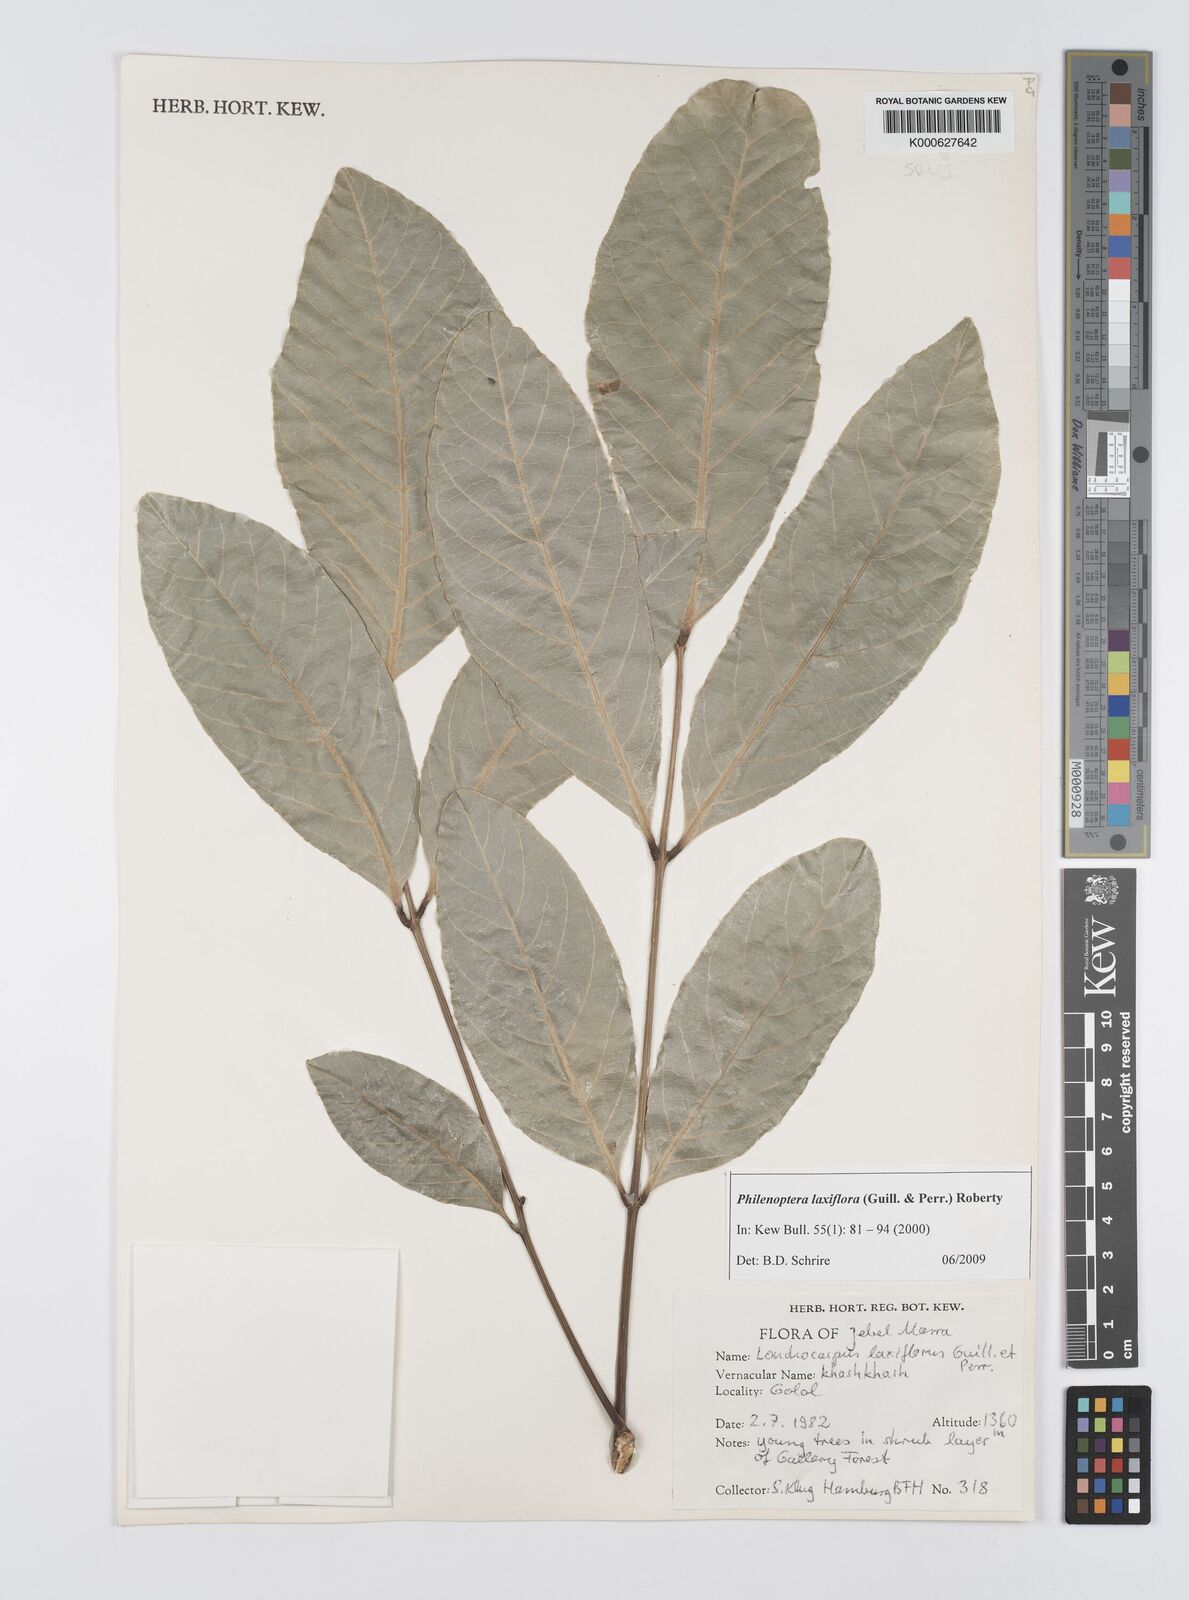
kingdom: Plantae
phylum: Tracheophyta
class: Magnoliopsida
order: Fabales
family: Fabaceae
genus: Philenoptera
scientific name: Philenoptera laxiflora
